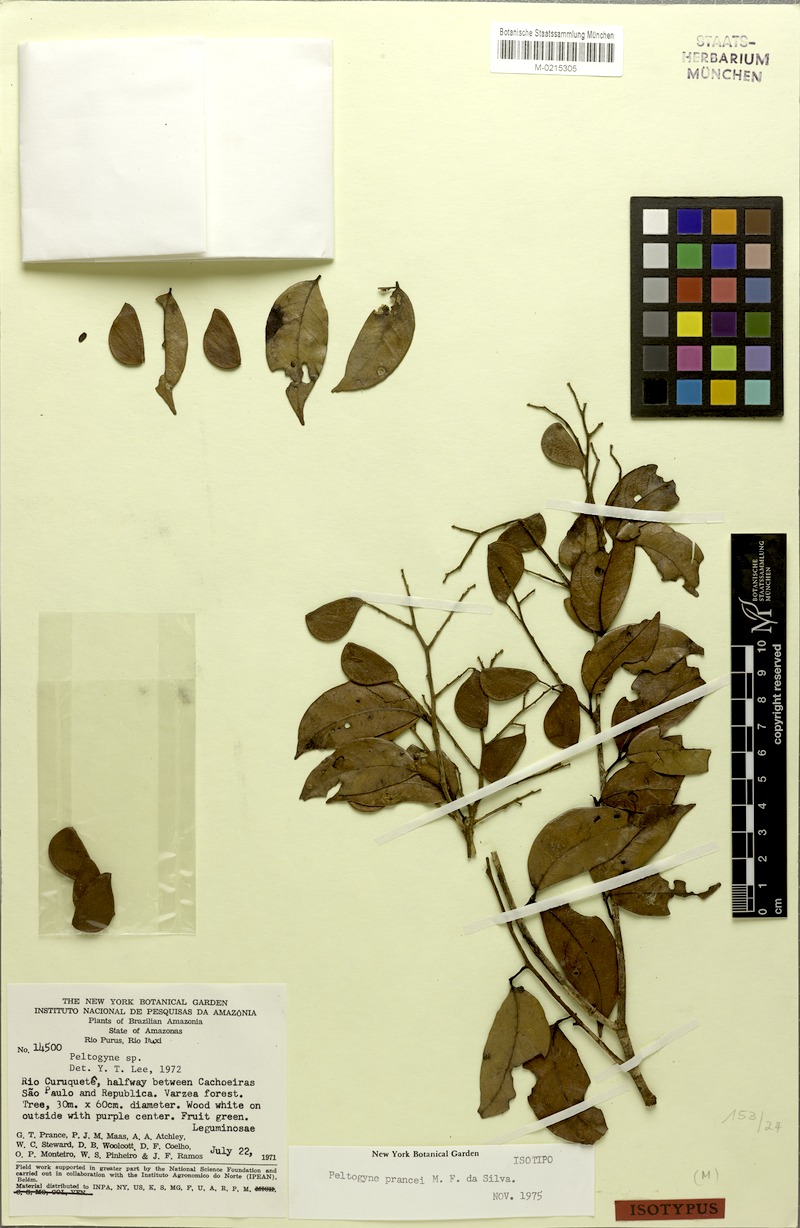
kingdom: Plantae
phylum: Tracheophyta
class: Magnoliopsida
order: Fabales
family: Fabaceae
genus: Peltogyne
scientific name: Peltogyne prancei
